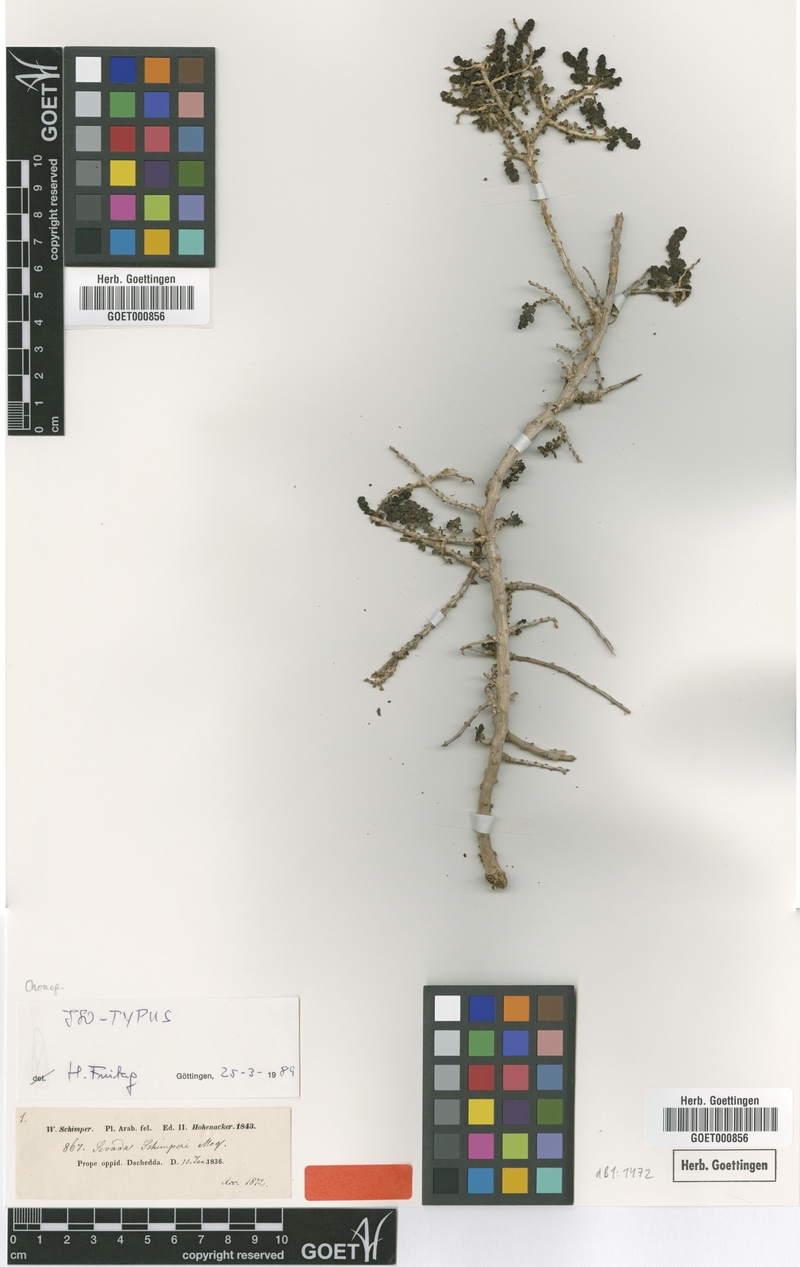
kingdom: Plantae
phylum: Tracheophyta
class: Magnoliopsida
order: Caryophyllales
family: Amaranthaceae
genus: Sevada
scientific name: Sevada schimperi
